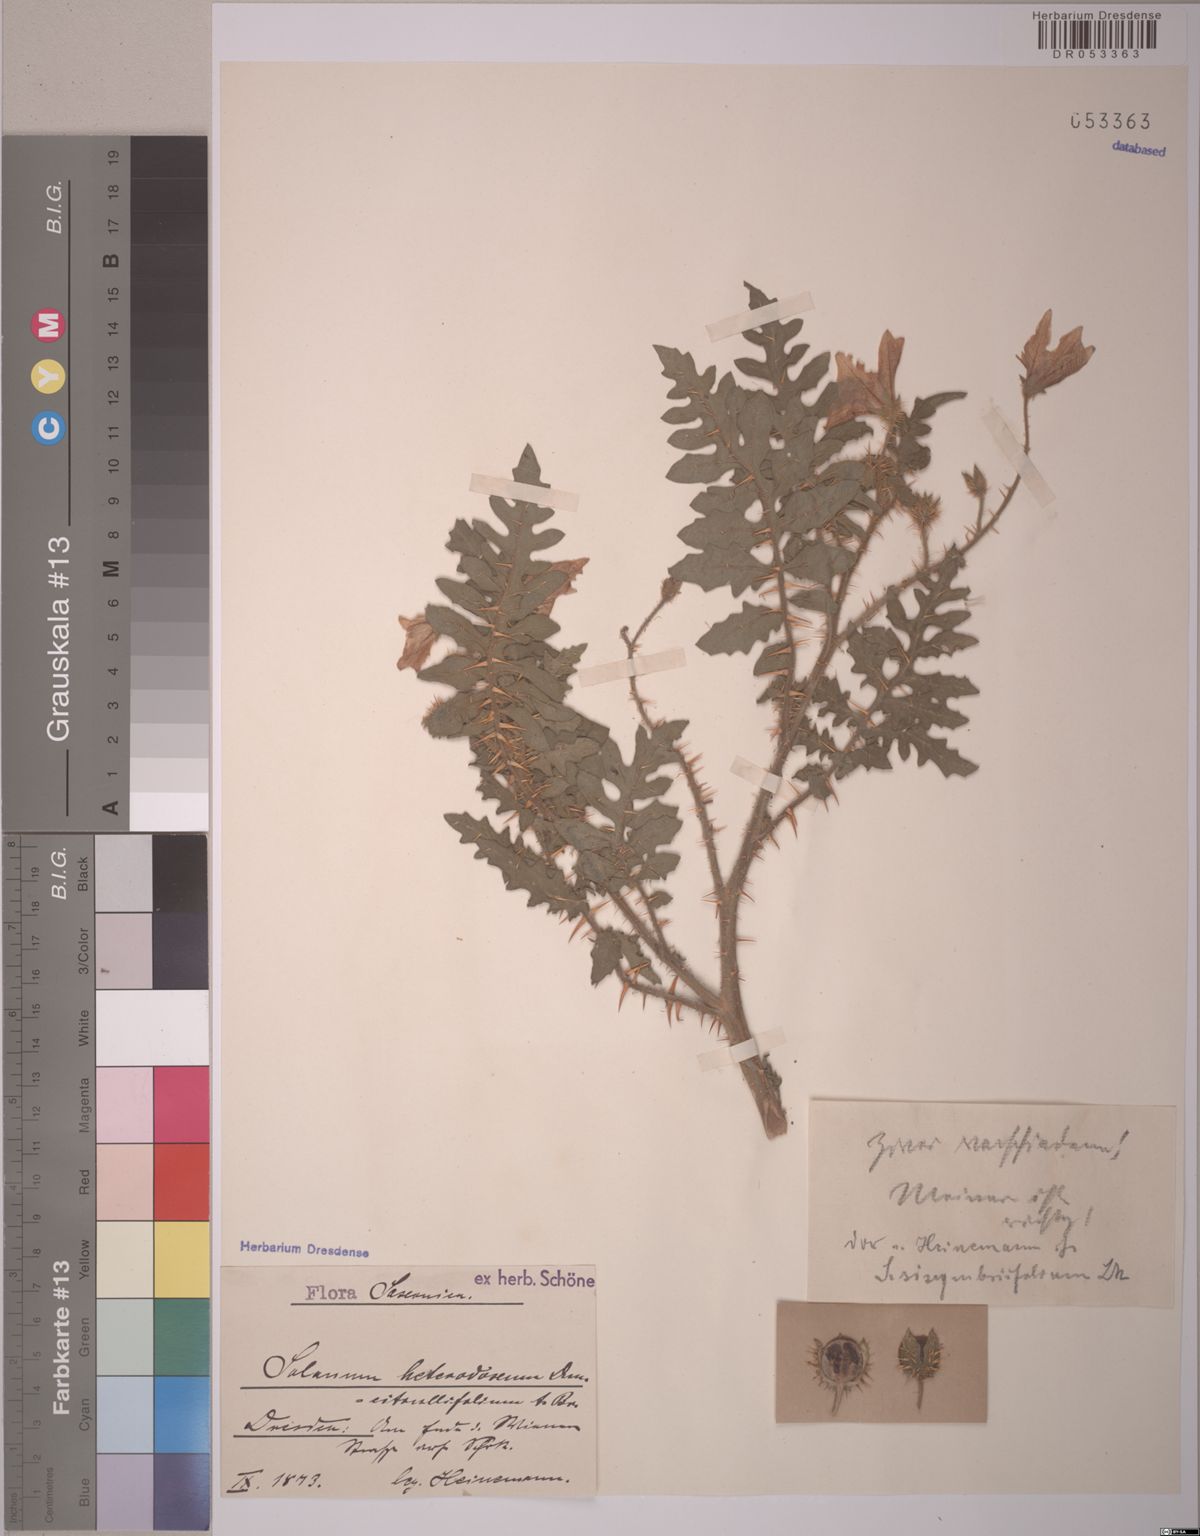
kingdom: Plantae
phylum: Tracheophyta
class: Magnoliopsida
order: Solanales
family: Solanaceae
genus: Solanum
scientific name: Solanum heterodoxum
